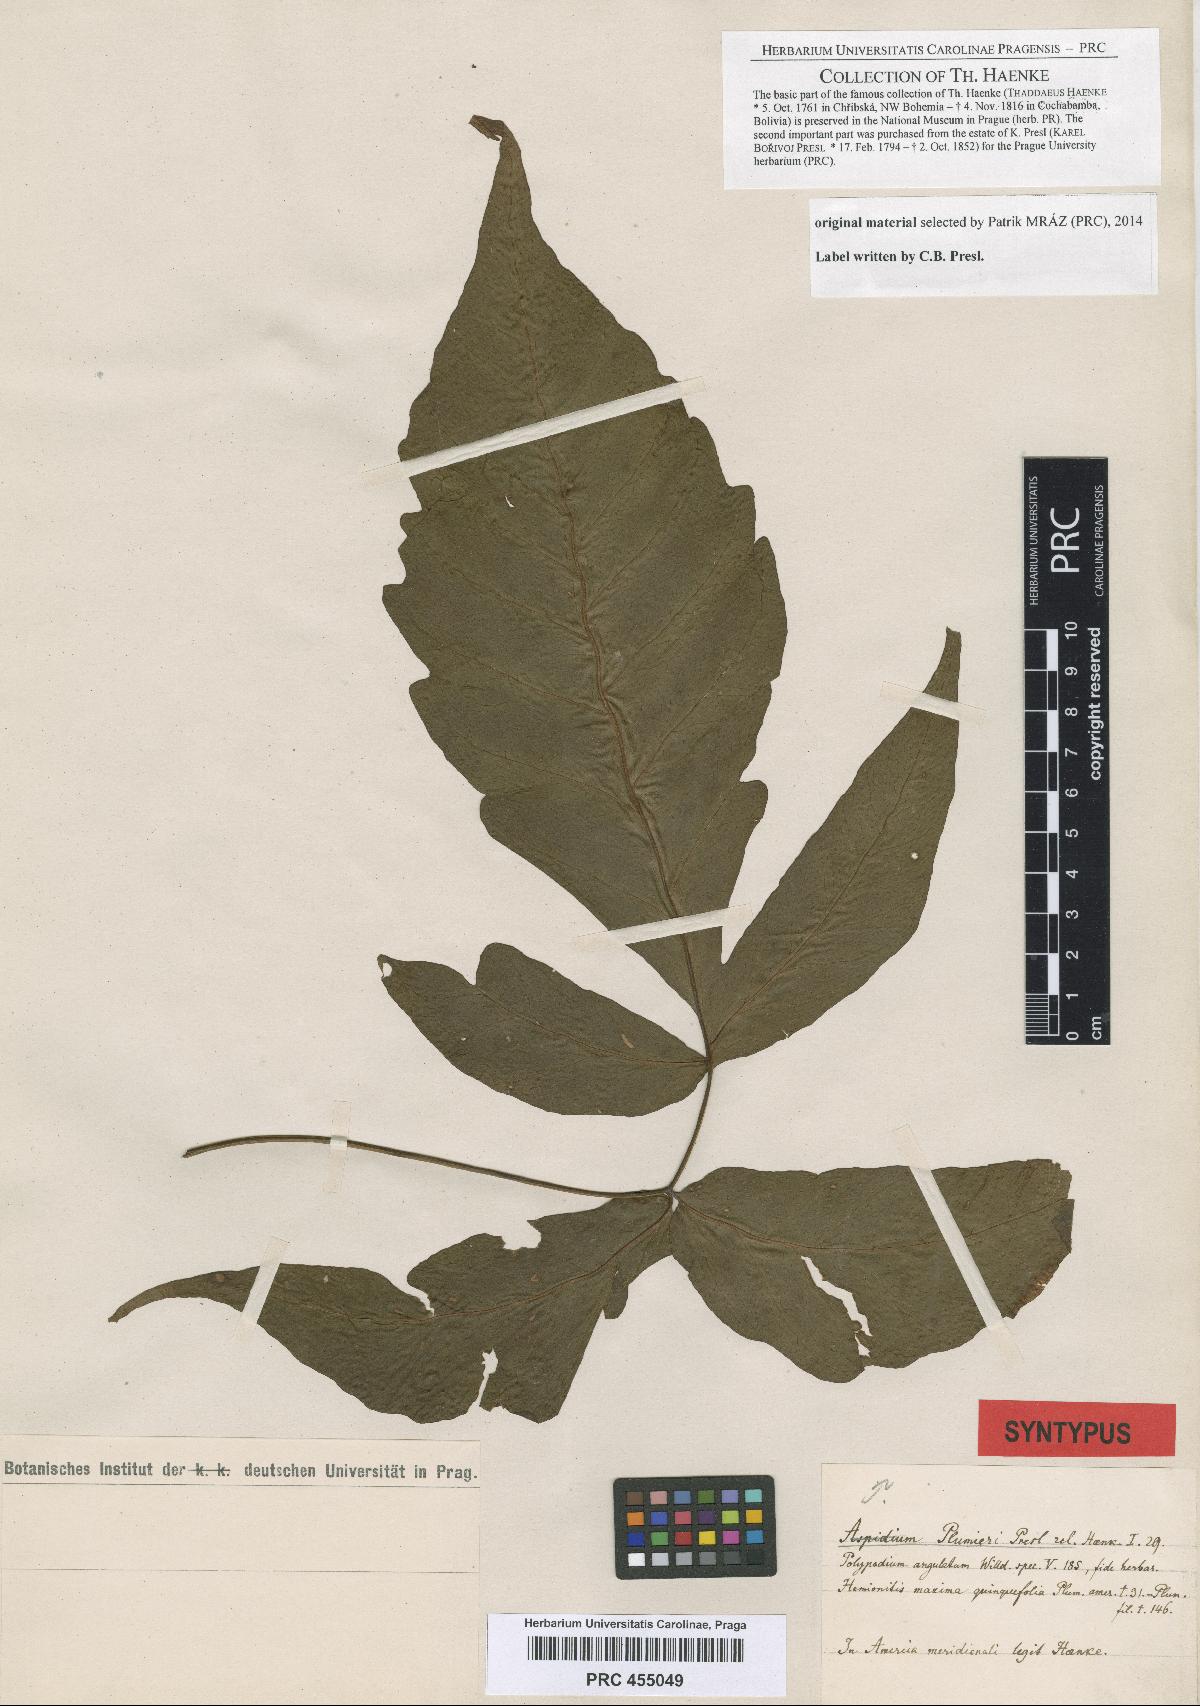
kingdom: Plantae
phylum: Tracheophyta
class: Polypodiopsida
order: Polypodiales
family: Tectariaceae
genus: Tectaria
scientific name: Tectaria trifoliata
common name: Threeleaf halberd fern
